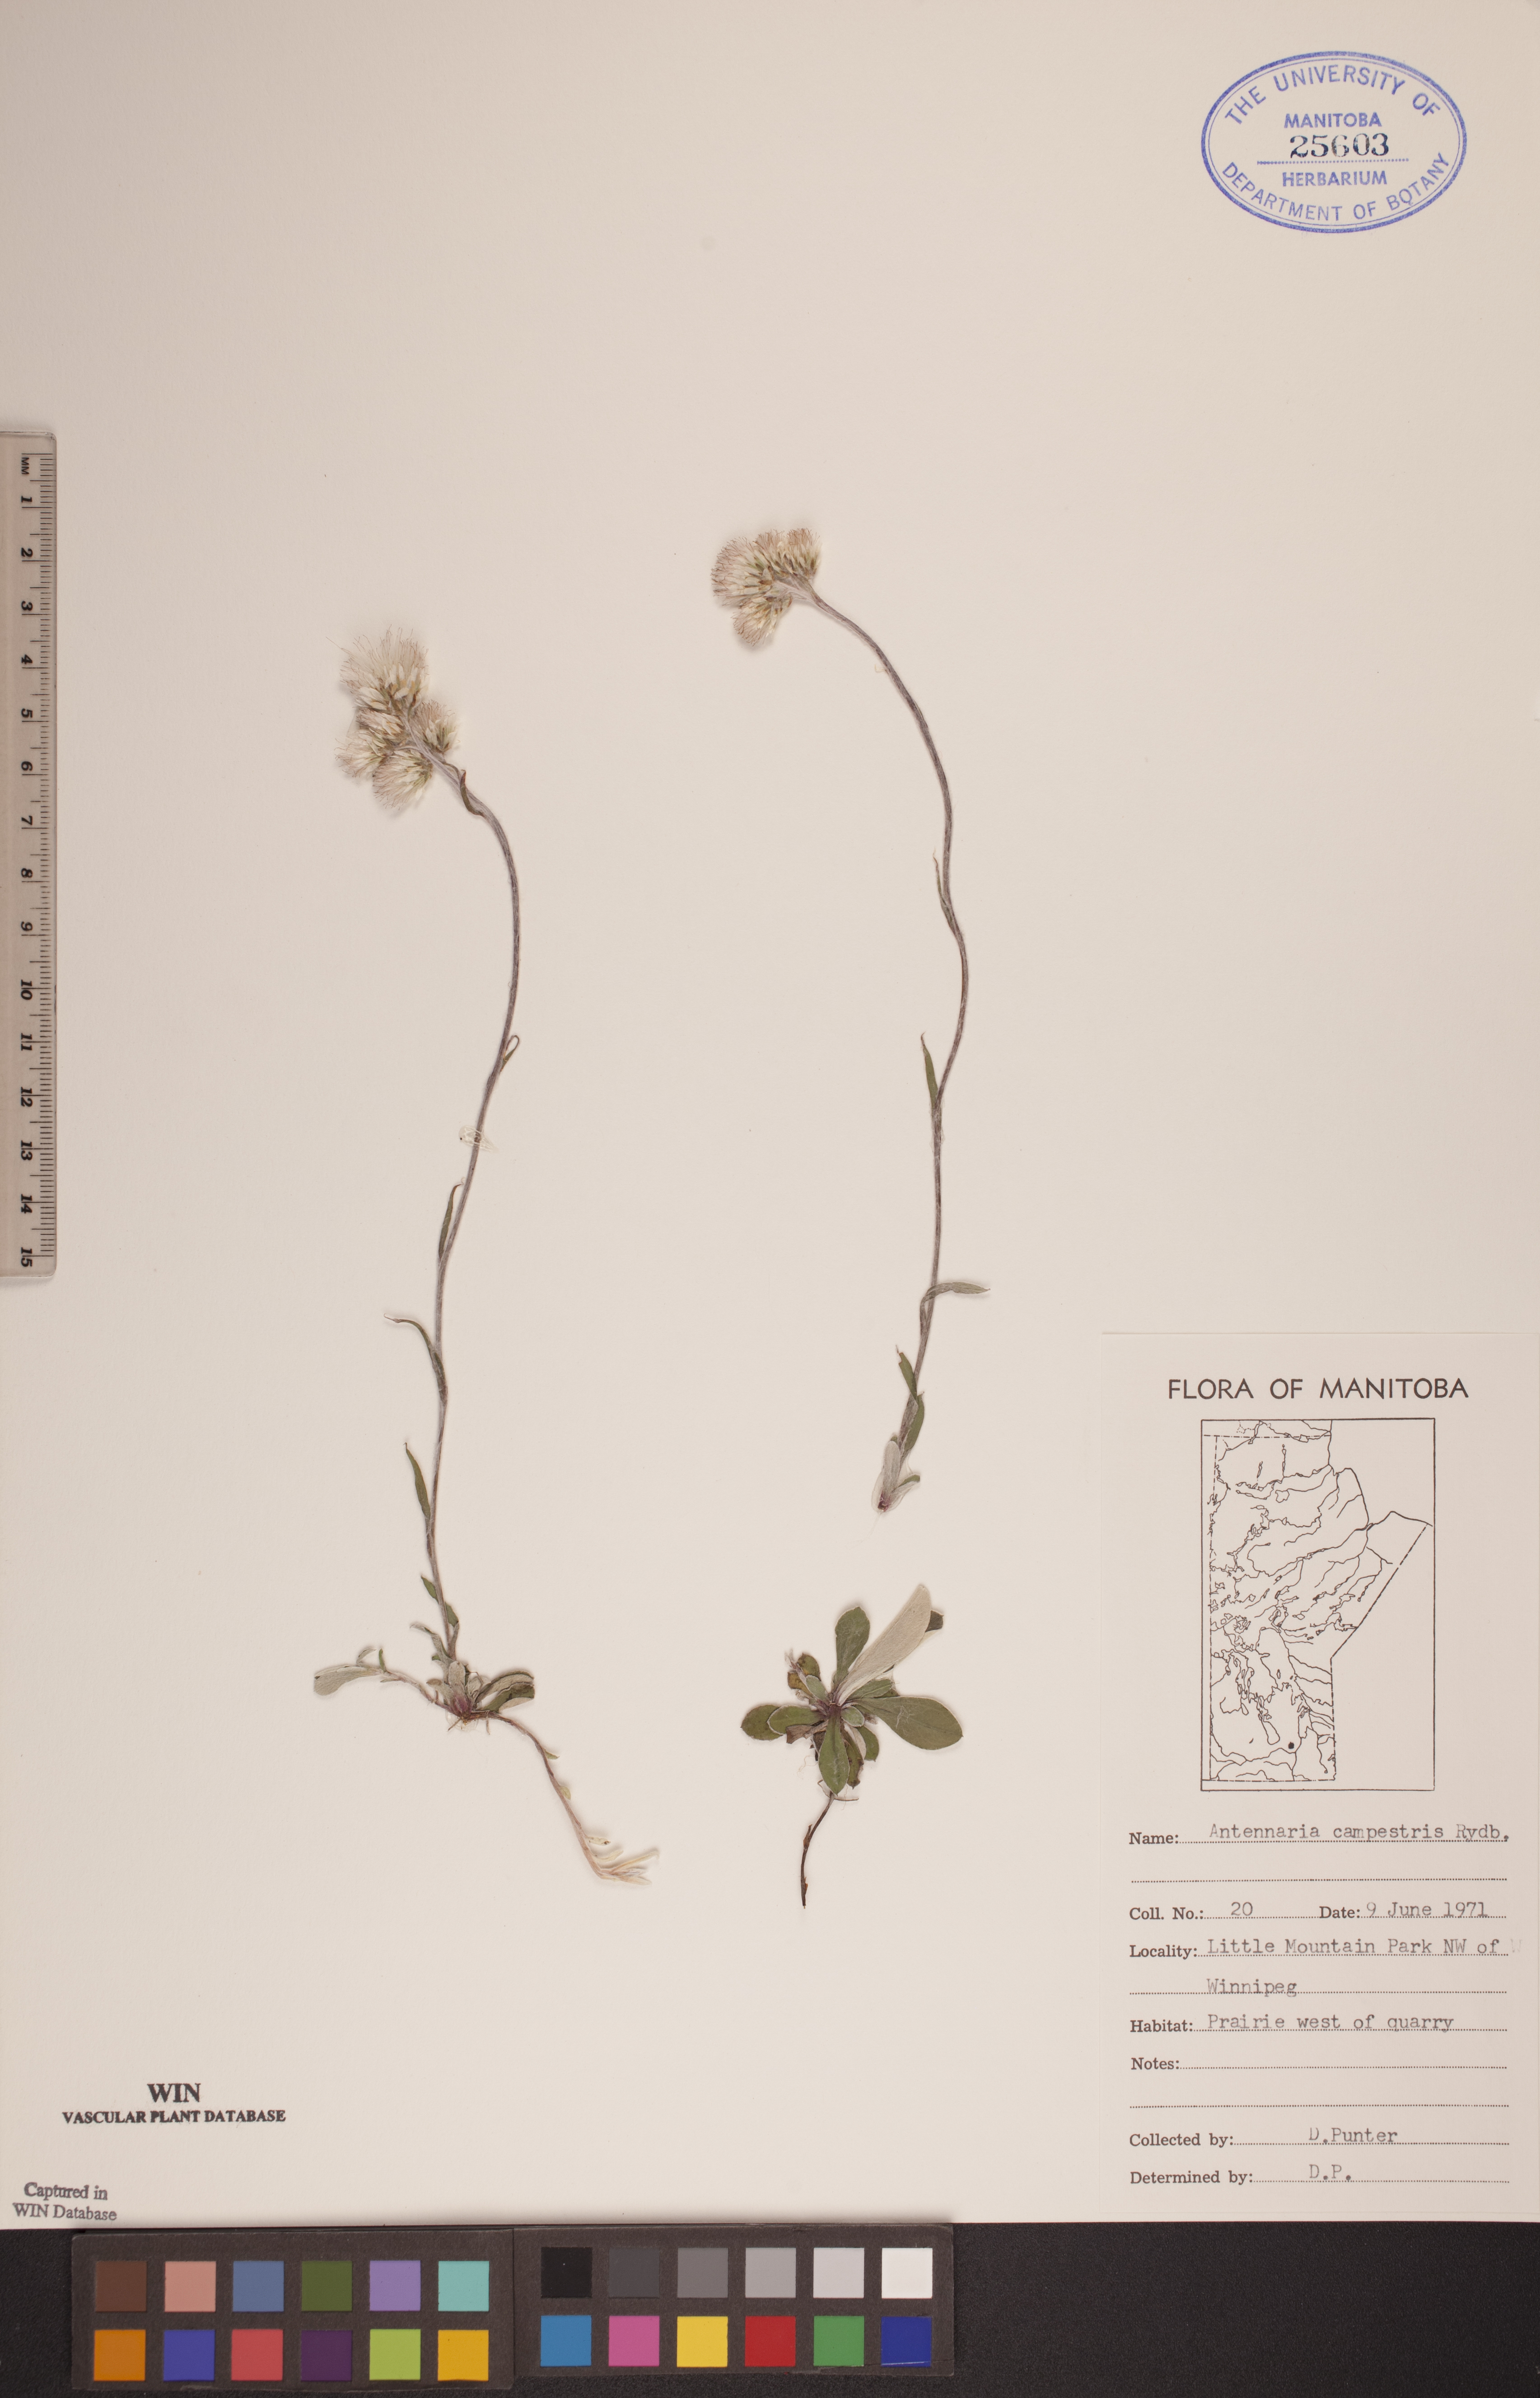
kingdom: Plantae
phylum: Tracheophyta
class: Magnoliopsida
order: Asterales
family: Asteraceae
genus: Antennaria
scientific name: Antennaria neglecta
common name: Field pussytoes
